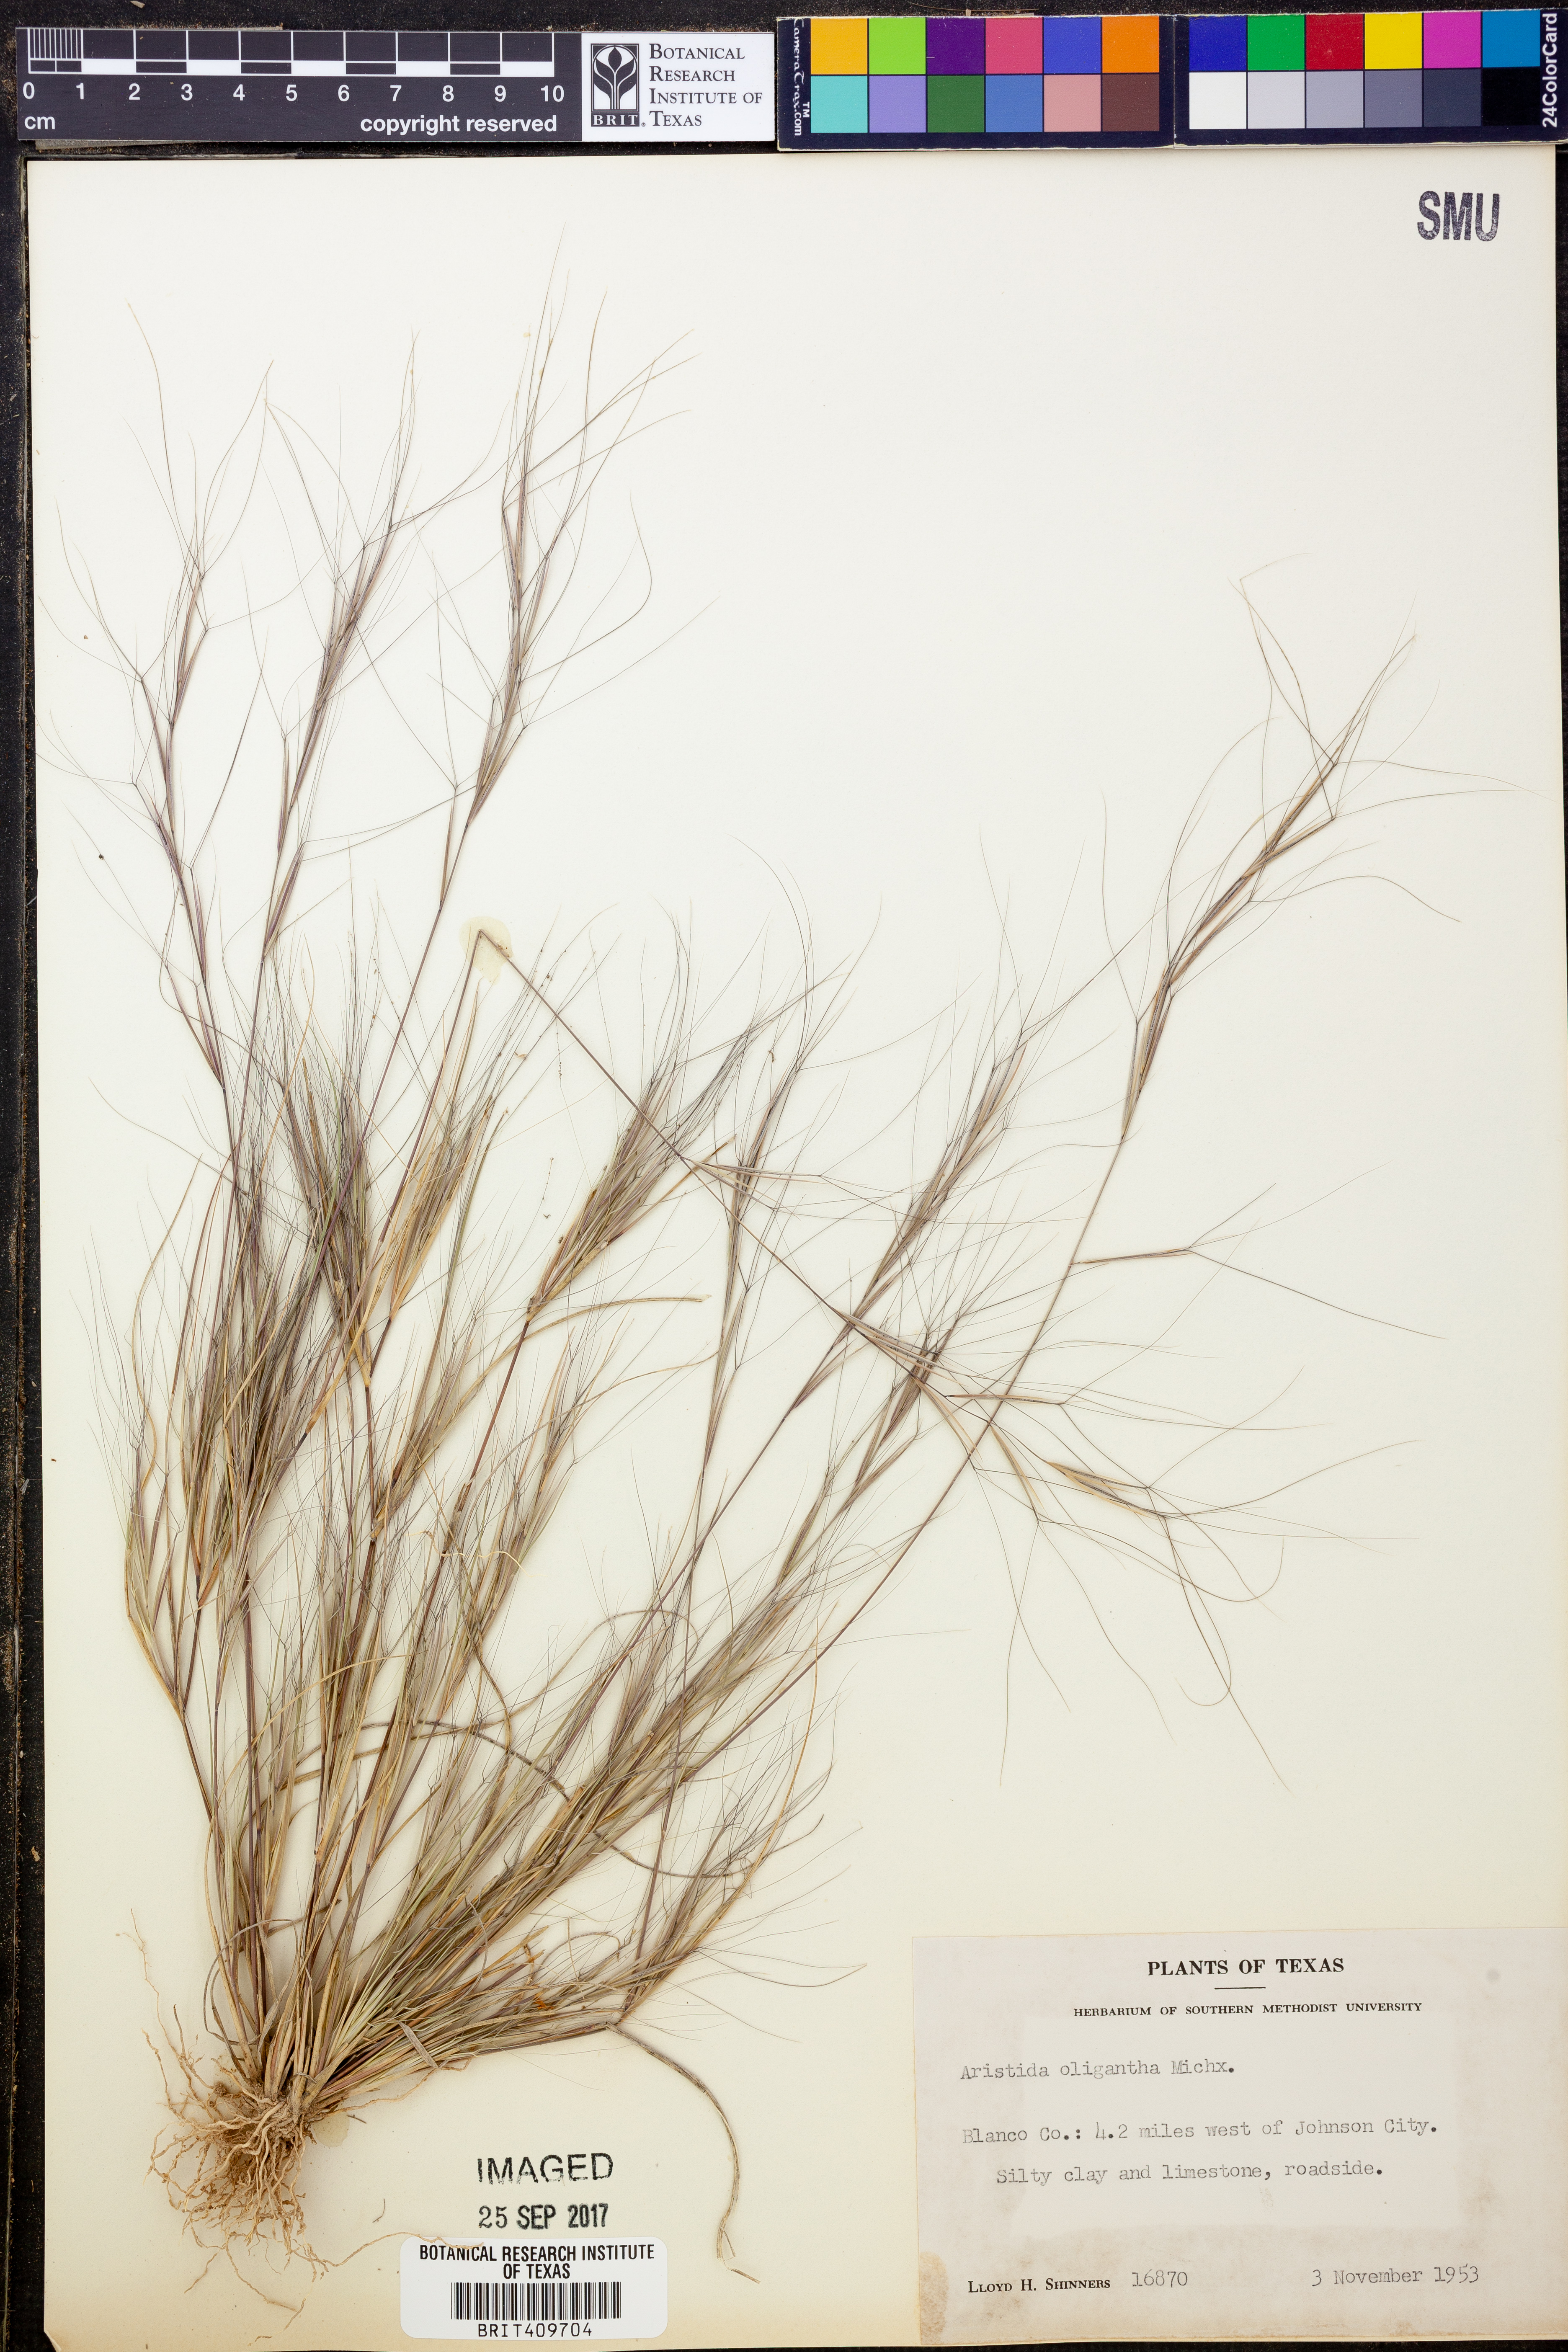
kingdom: Plantae
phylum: Tracheophyta
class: Liliopsida
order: Poales
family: Poaceae
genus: Aristida
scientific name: Aristida oligantha
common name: Few-flowered aristida
